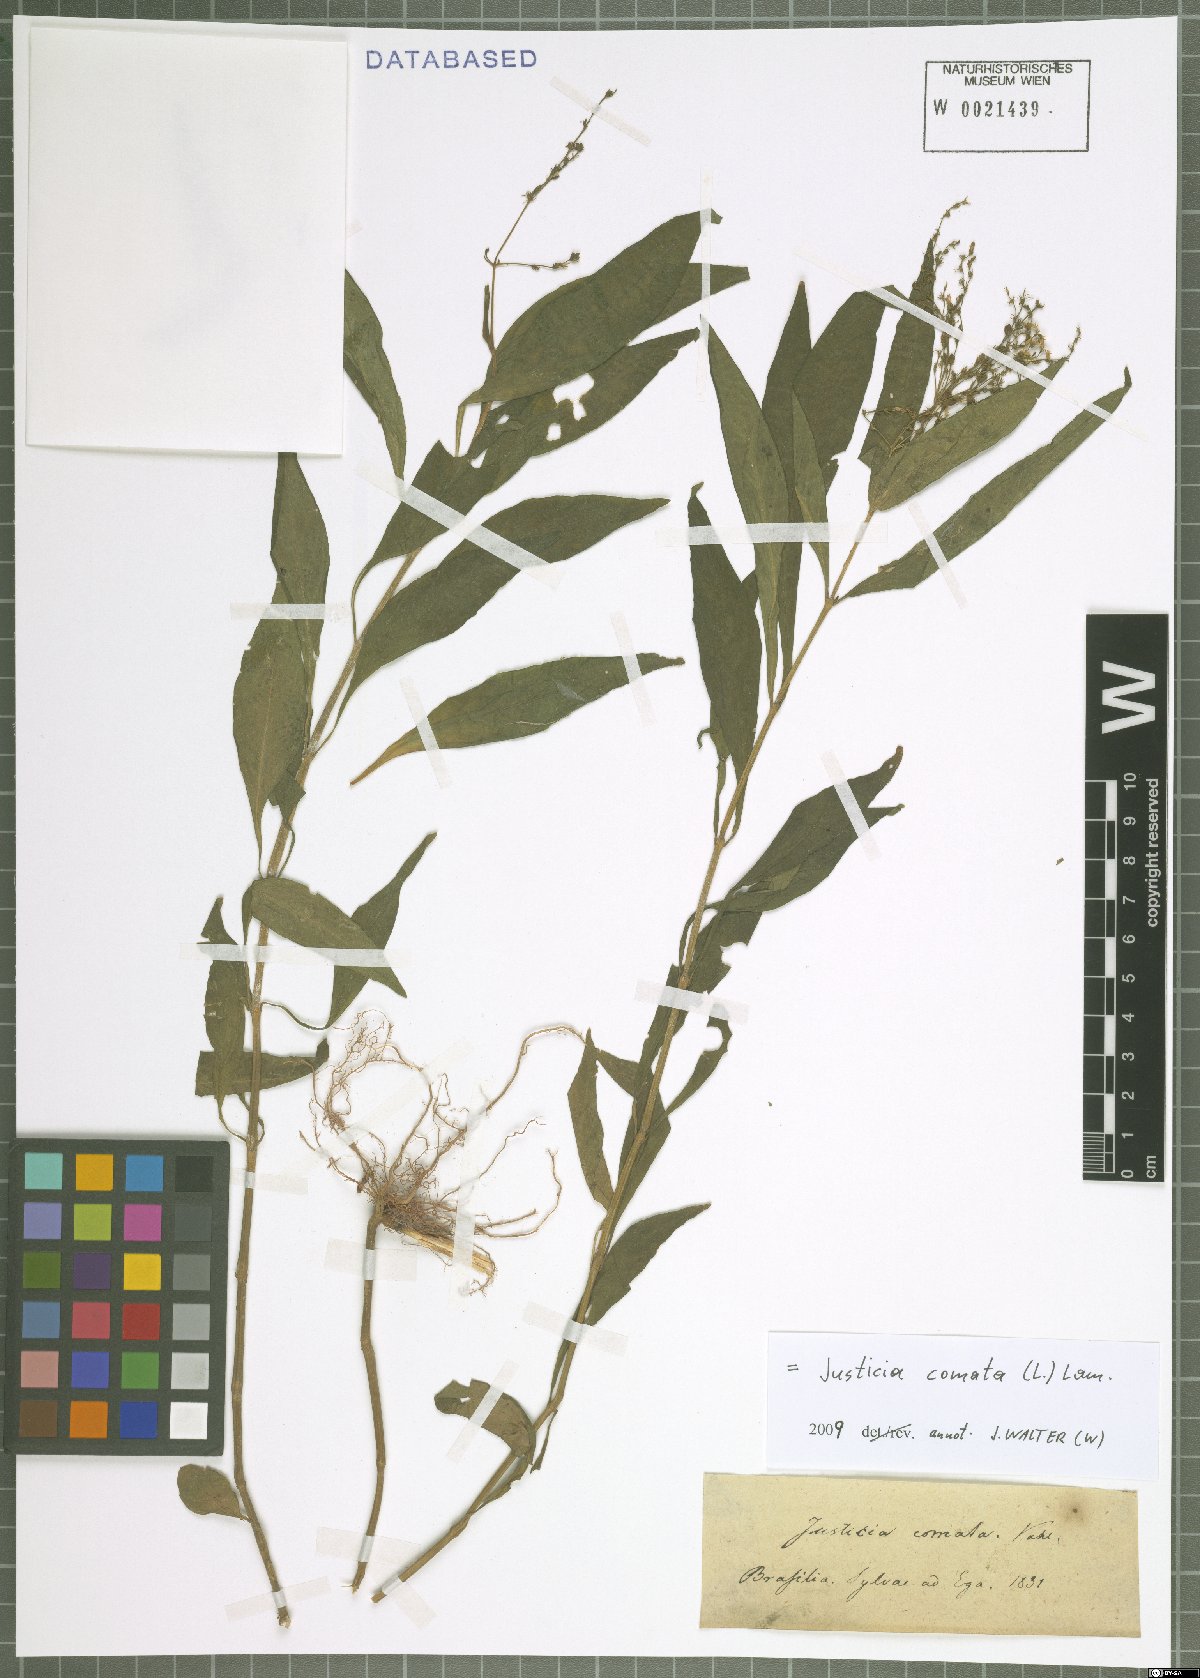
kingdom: Plantae
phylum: Tracheophyta
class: Magnoliopsida
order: Lamiales
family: Acanthaceae
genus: Dianthera
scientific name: Dianthera comata
